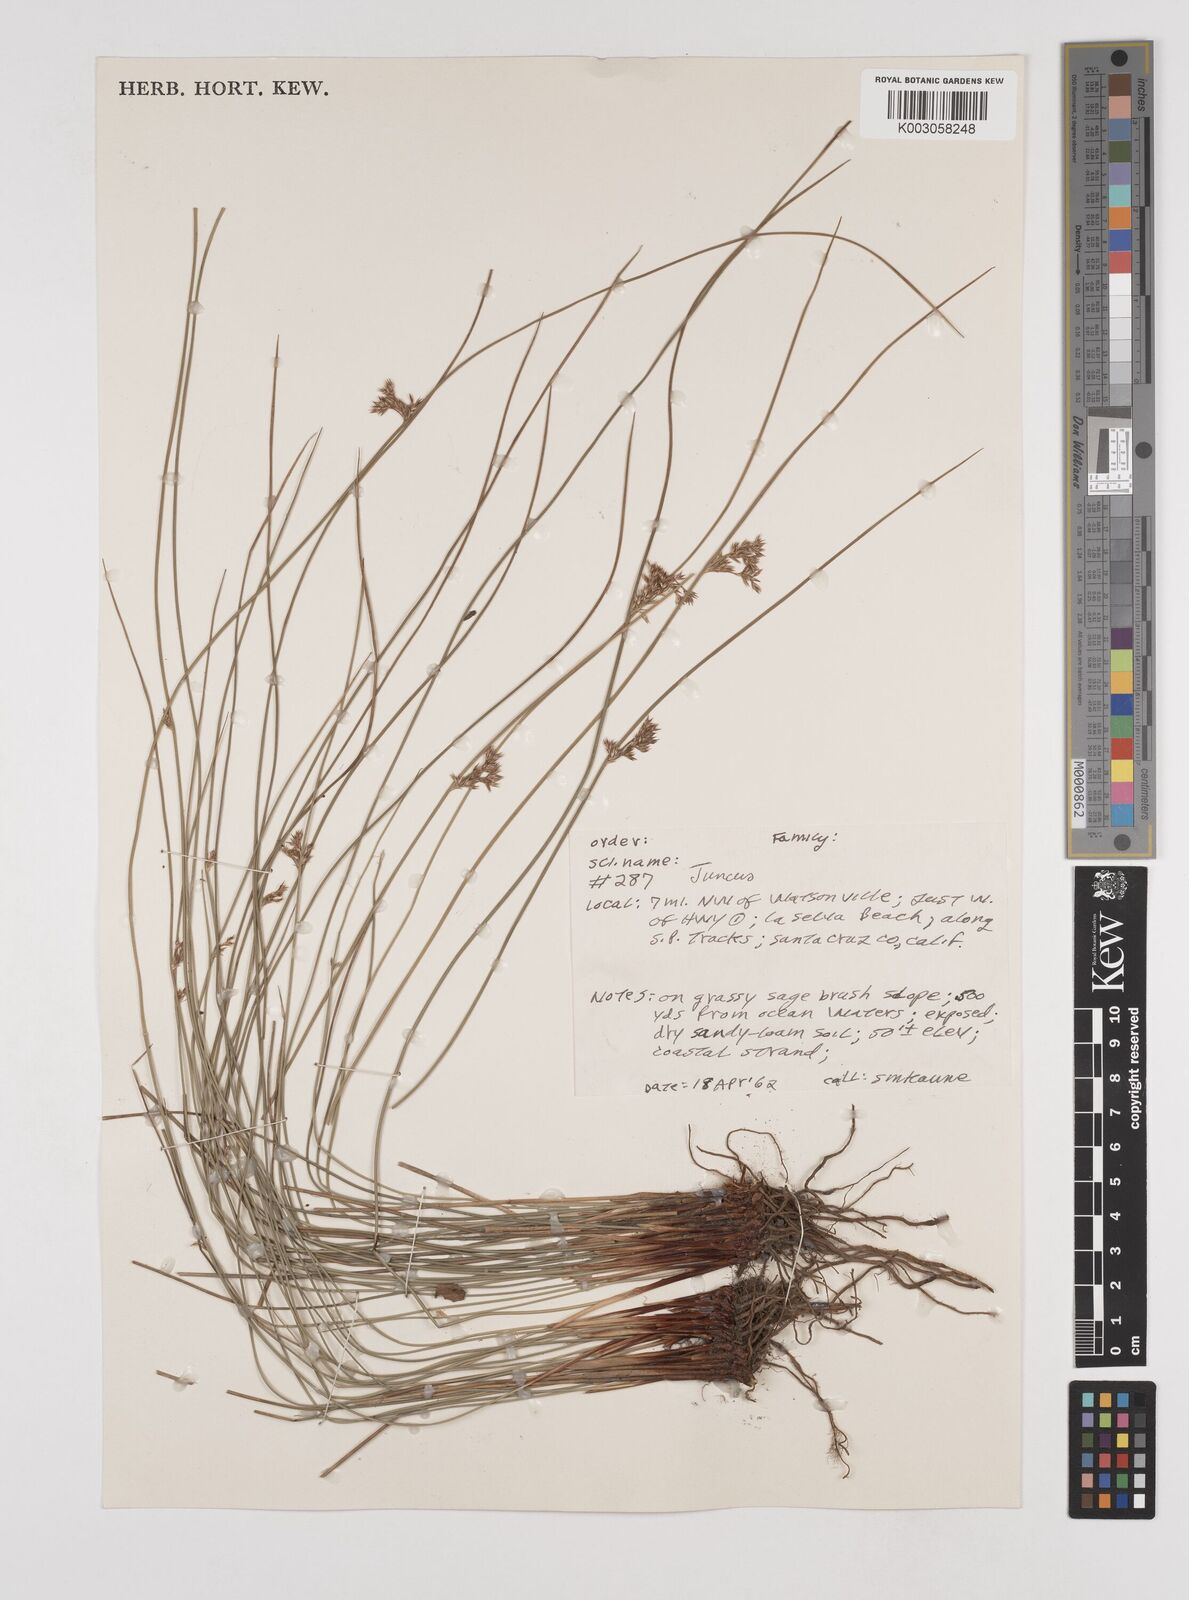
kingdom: Plantae
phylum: Tracheophyta
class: Liliopsida
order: Poales
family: Juncaceae
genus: Juncus
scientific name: Juncus
